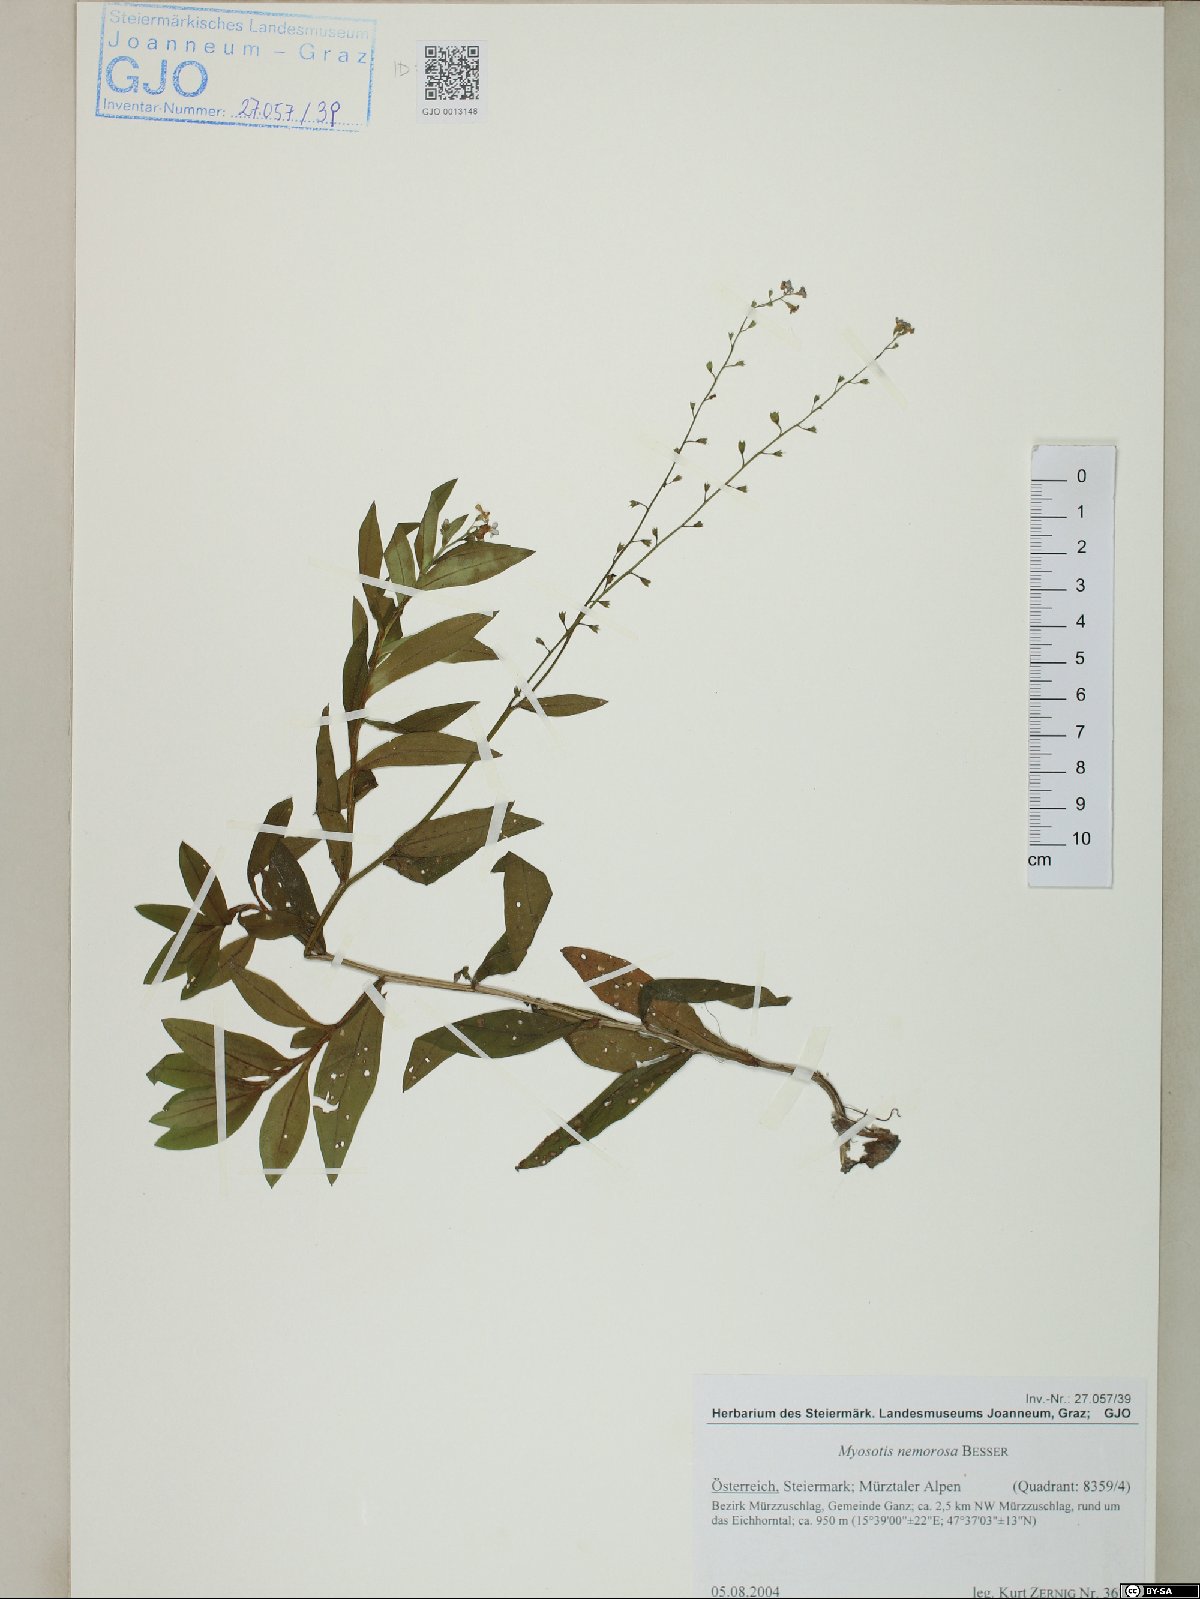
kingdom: Plantae
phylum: Tracheophyta
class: Magnoliopsida
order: Boraginales
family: Boraginaceae
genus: Myosotis
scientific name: Myosotis nemorosa
